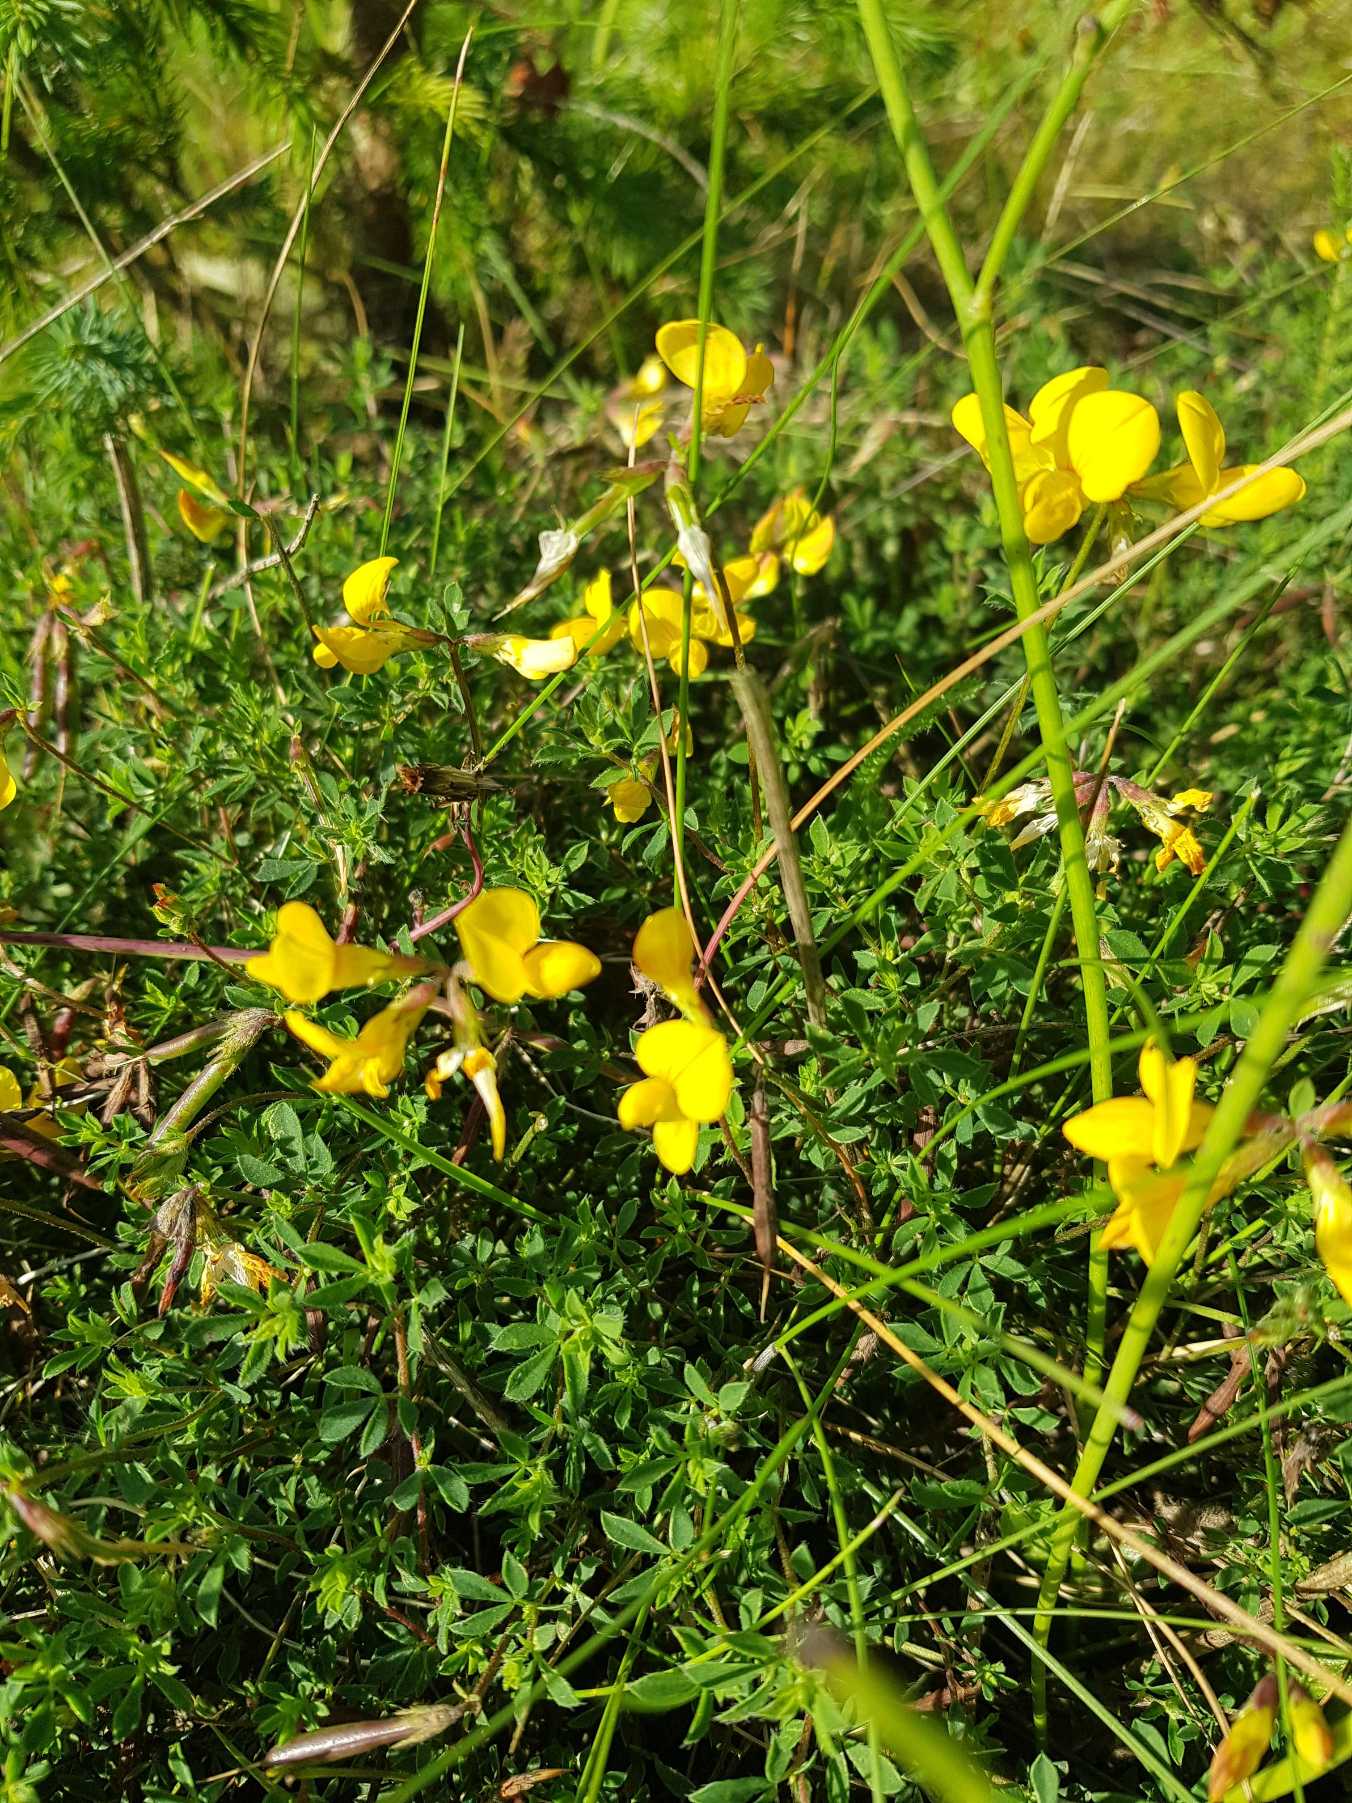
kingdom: Plantae
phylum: Tracheophyta
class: Magnoliopsida
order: Fabales
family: Fabaceae
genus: Lotus
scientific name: Lotus corniculatus
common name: Almindelig kællingetand
